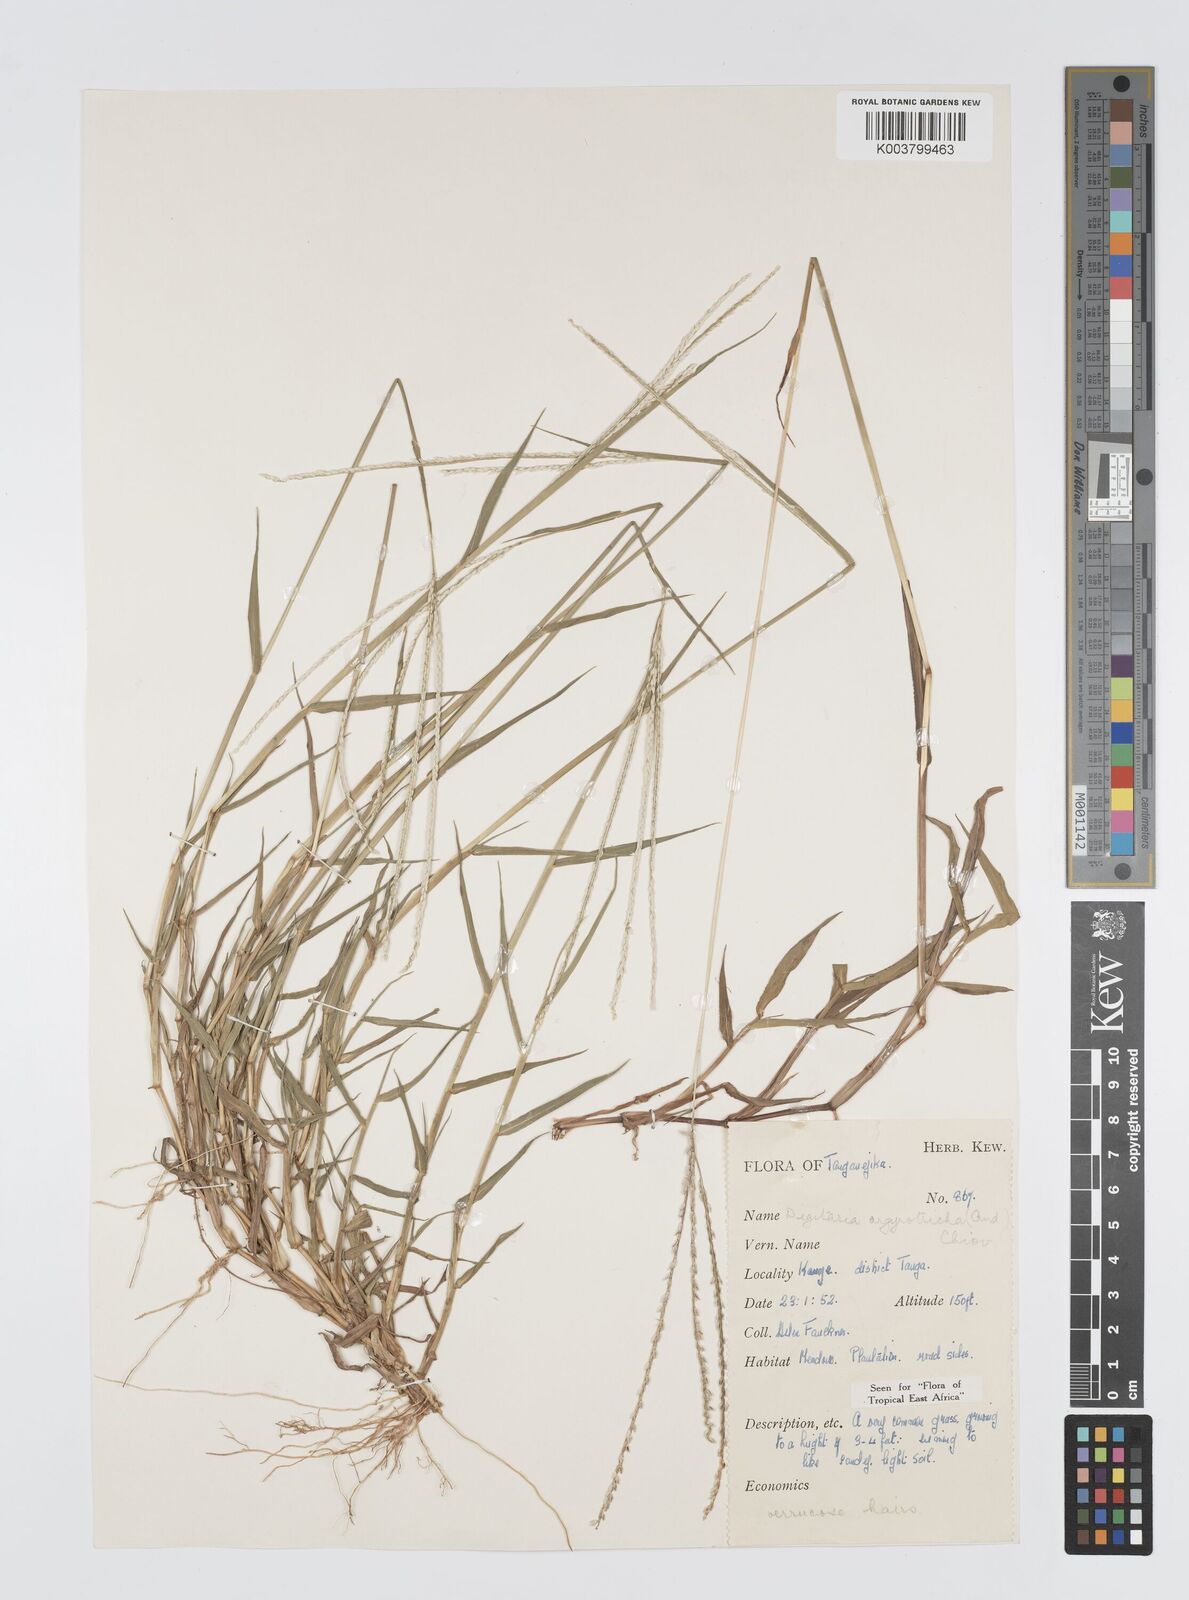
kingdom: Plantae
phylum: Tracheophyta
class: Liliopsida
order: Poales
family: Poaceae
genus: Digitaria
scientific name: Digitaria argyrotricha
